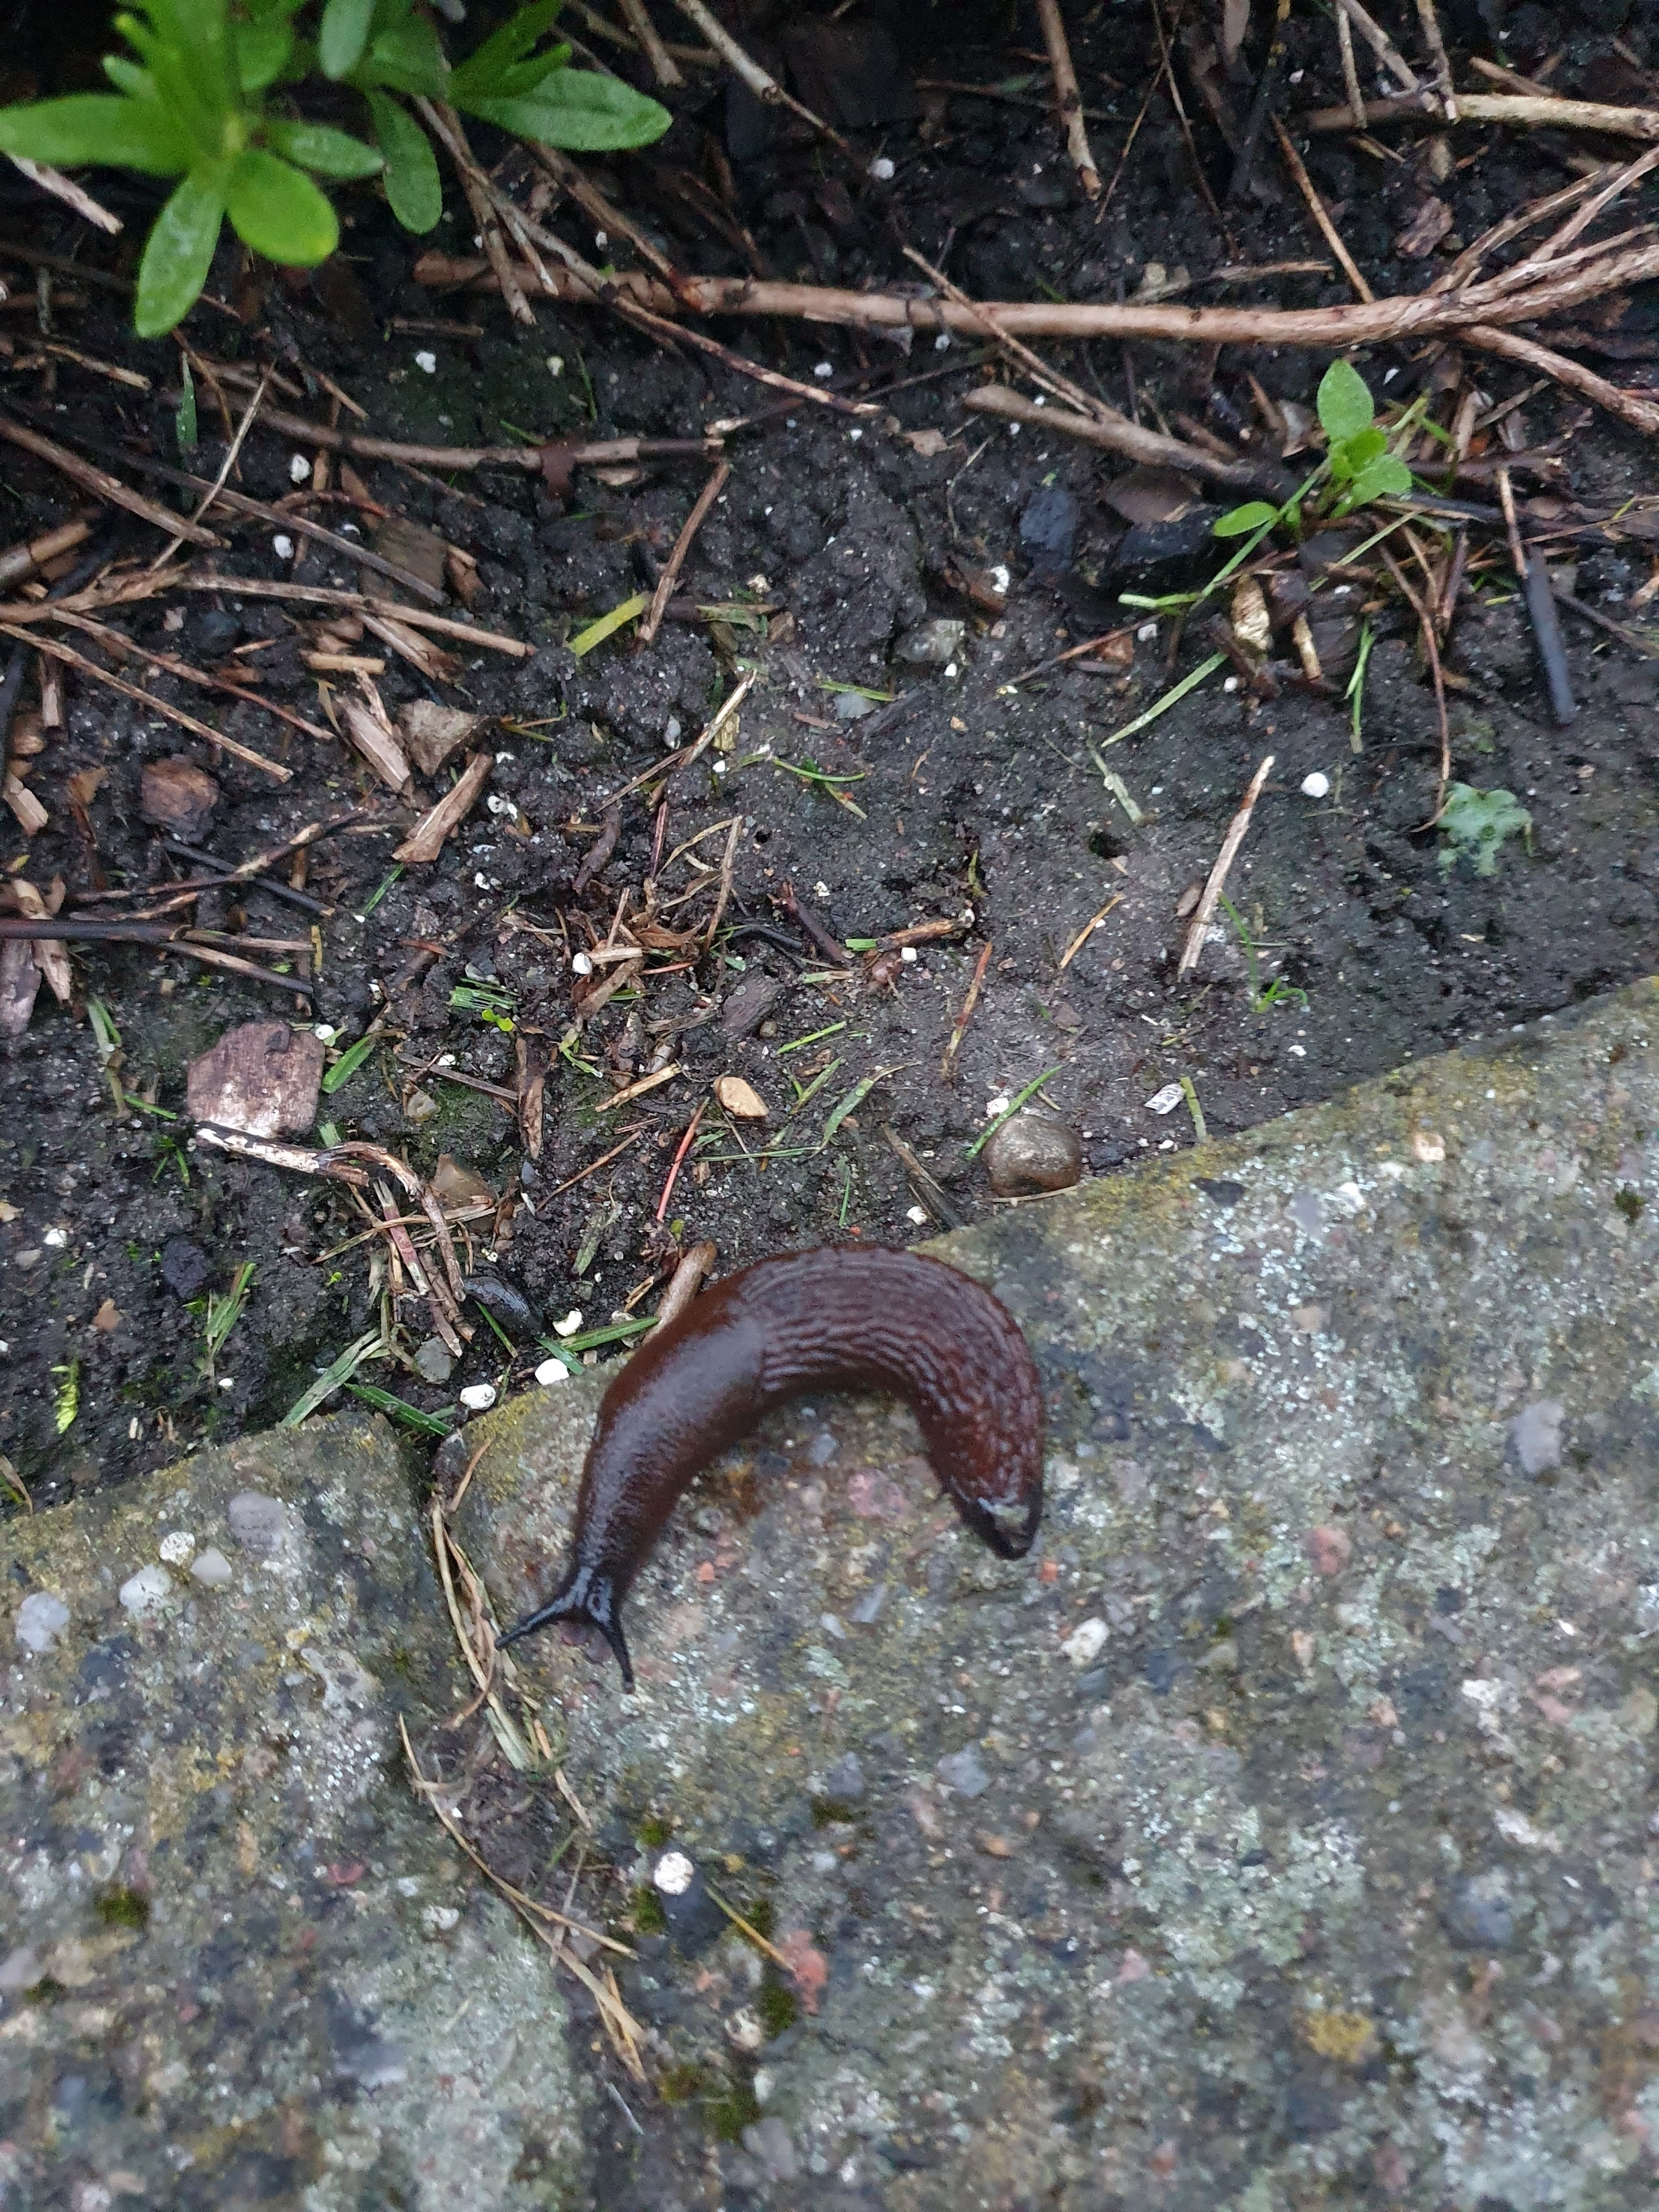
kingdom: Animalia
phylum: Mollusca
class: Gastropoda
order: Stylommatophora
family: Arionidae
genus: Arion
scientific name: Arion vulgaris
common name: Iberisk skovsnegl
